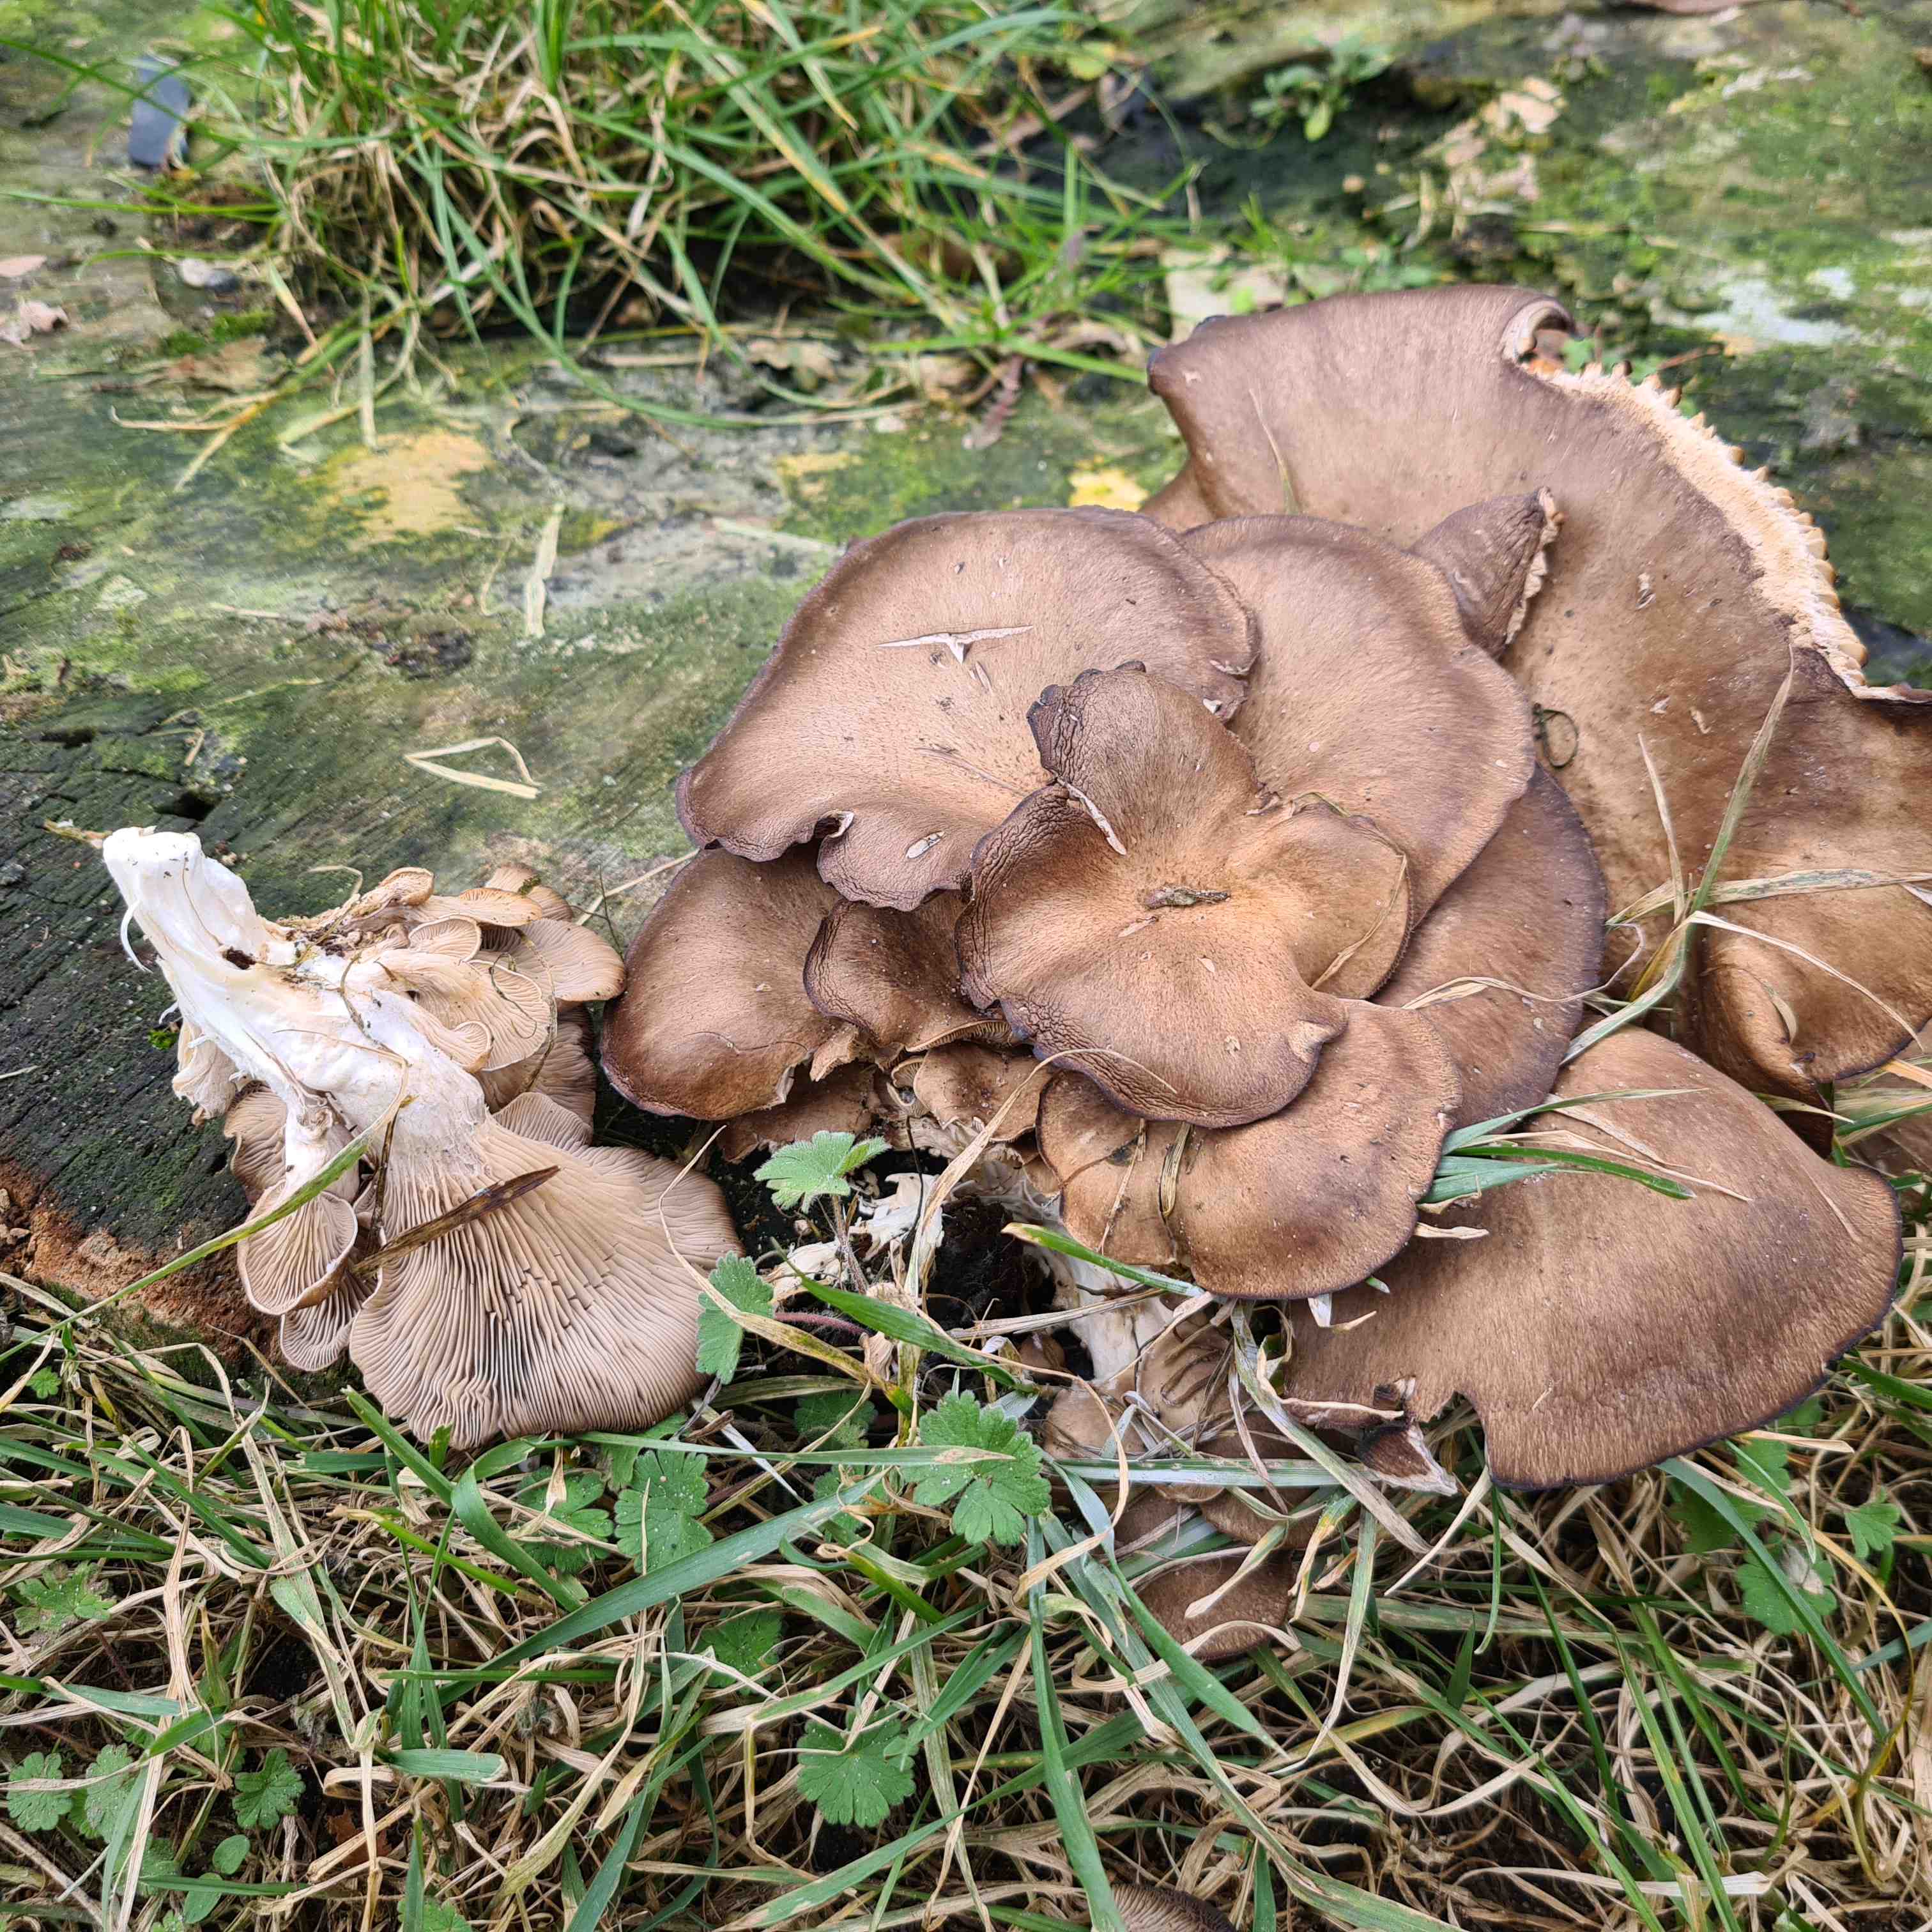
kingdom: Fungi
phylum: Basidiomycota
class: Agaricomycetes
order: Agaricales
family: Pleurotaceae
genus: Pleurotus
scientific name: Pleurotus ostreatus
